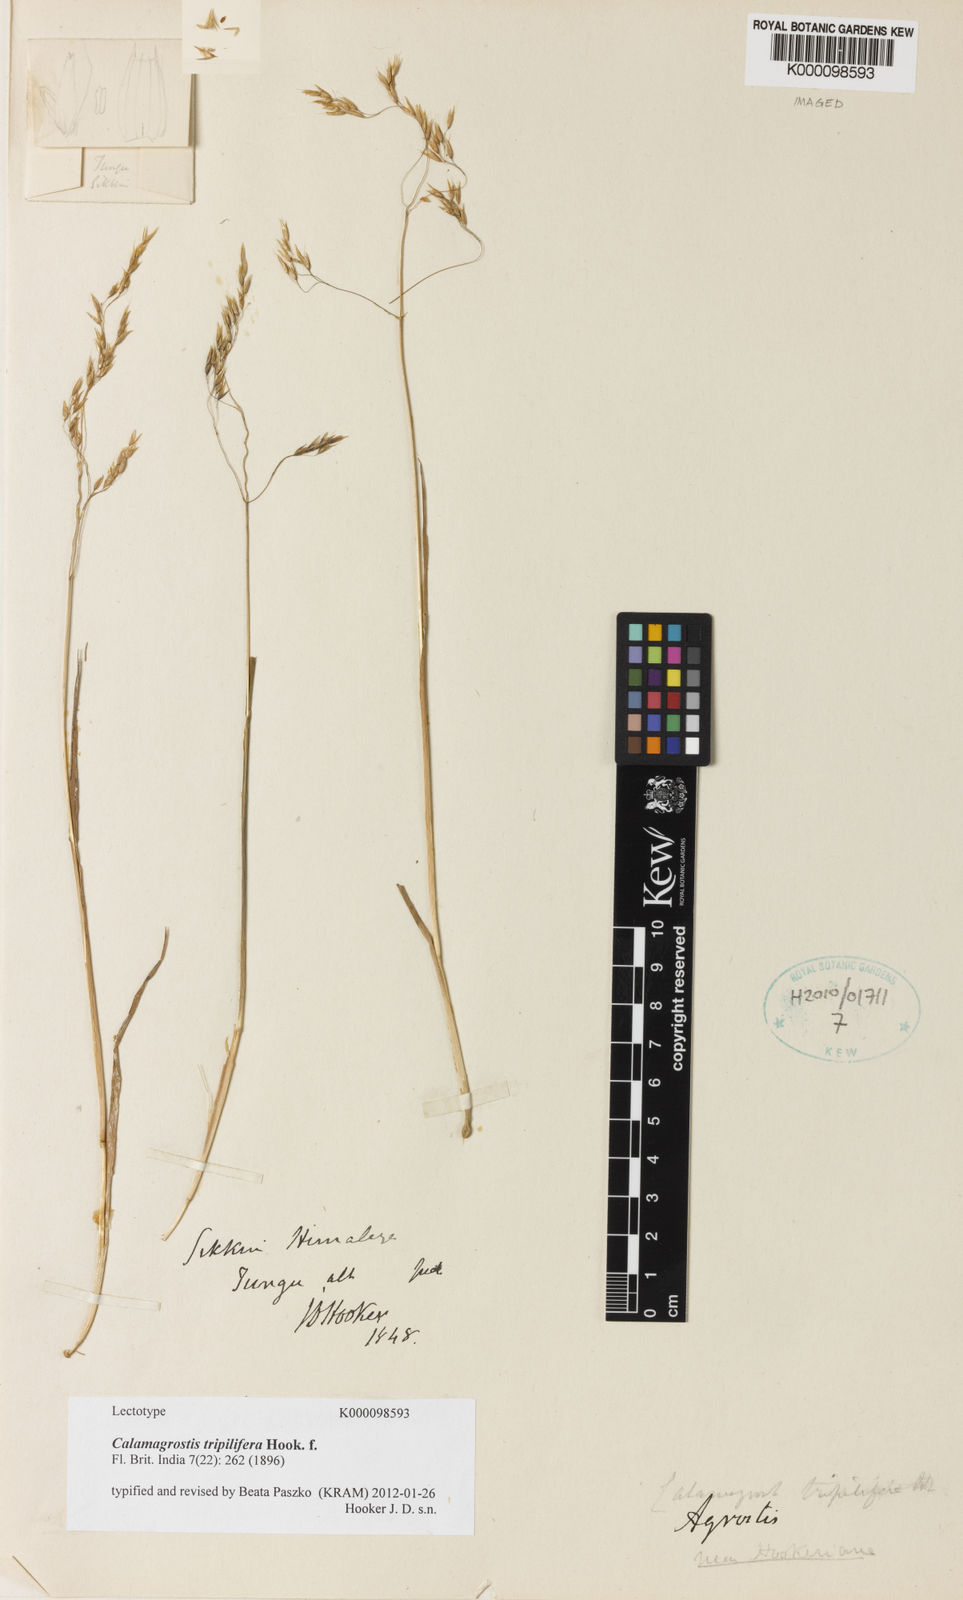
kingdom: Plantae
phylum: Tracheophyta
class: Liliopsida
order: Poales
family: Poaceae
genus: Calamagrostis
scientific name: Calamagrostis filiformis
